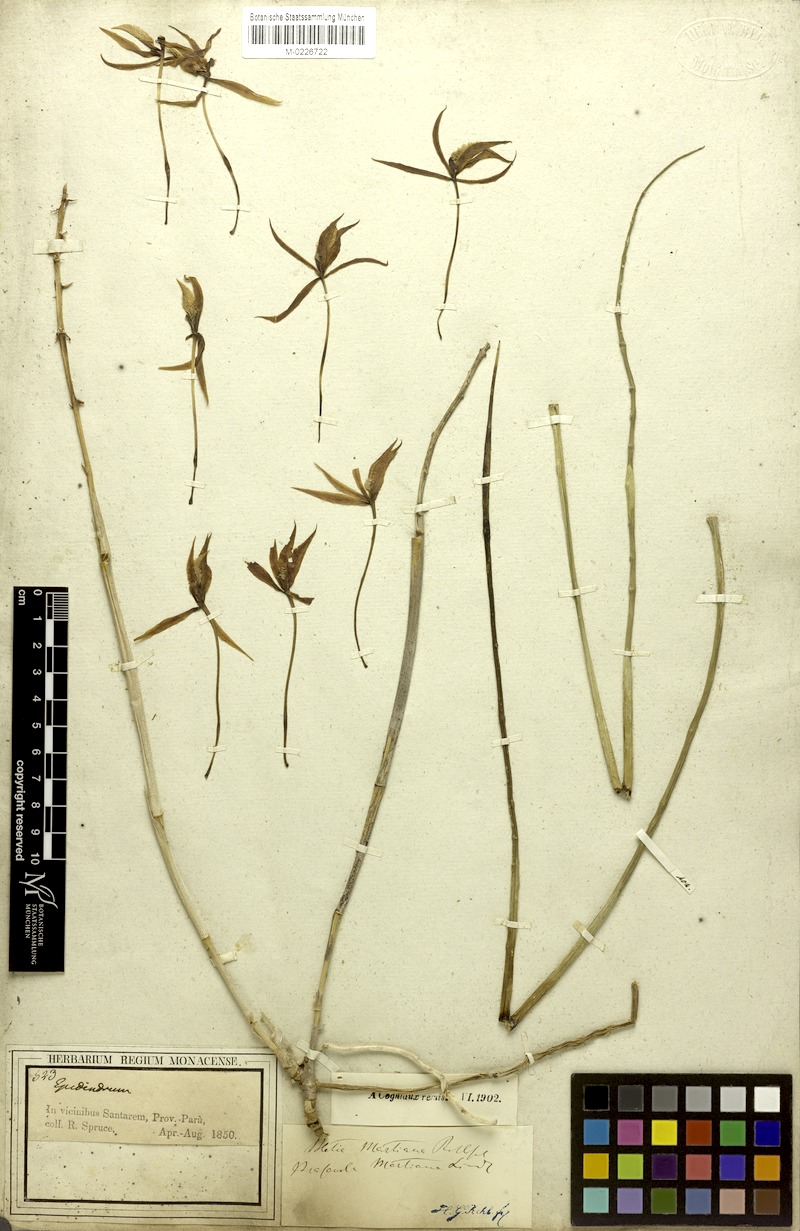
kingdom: Plantae
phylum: Tracheophyta
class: Liliopsida
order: Asparagales
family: Orchidaceae
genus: Brassavola
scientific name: Brassavola martiana
